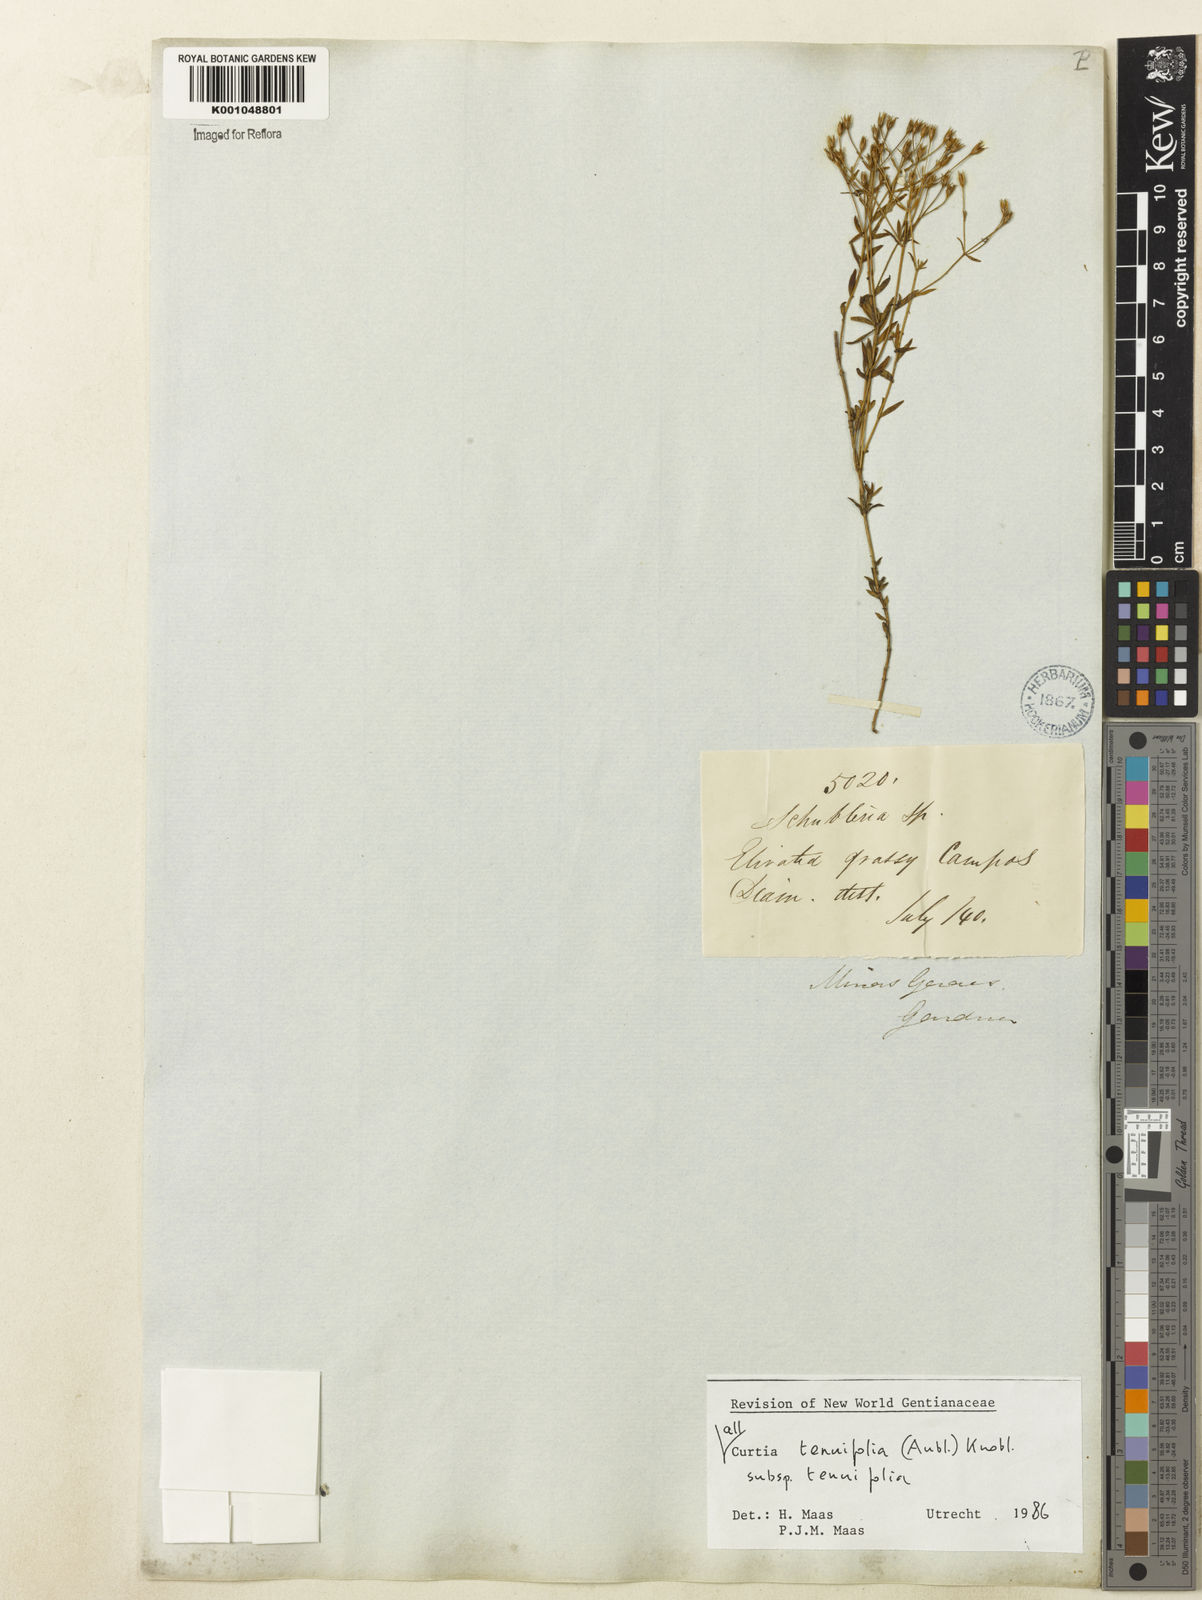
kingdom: Plantae
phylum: Tracheophyta
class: Magnoliopsida
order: Gentianales
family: Gentianaceae
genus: Curtia
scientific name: Curtia tenuifolia
